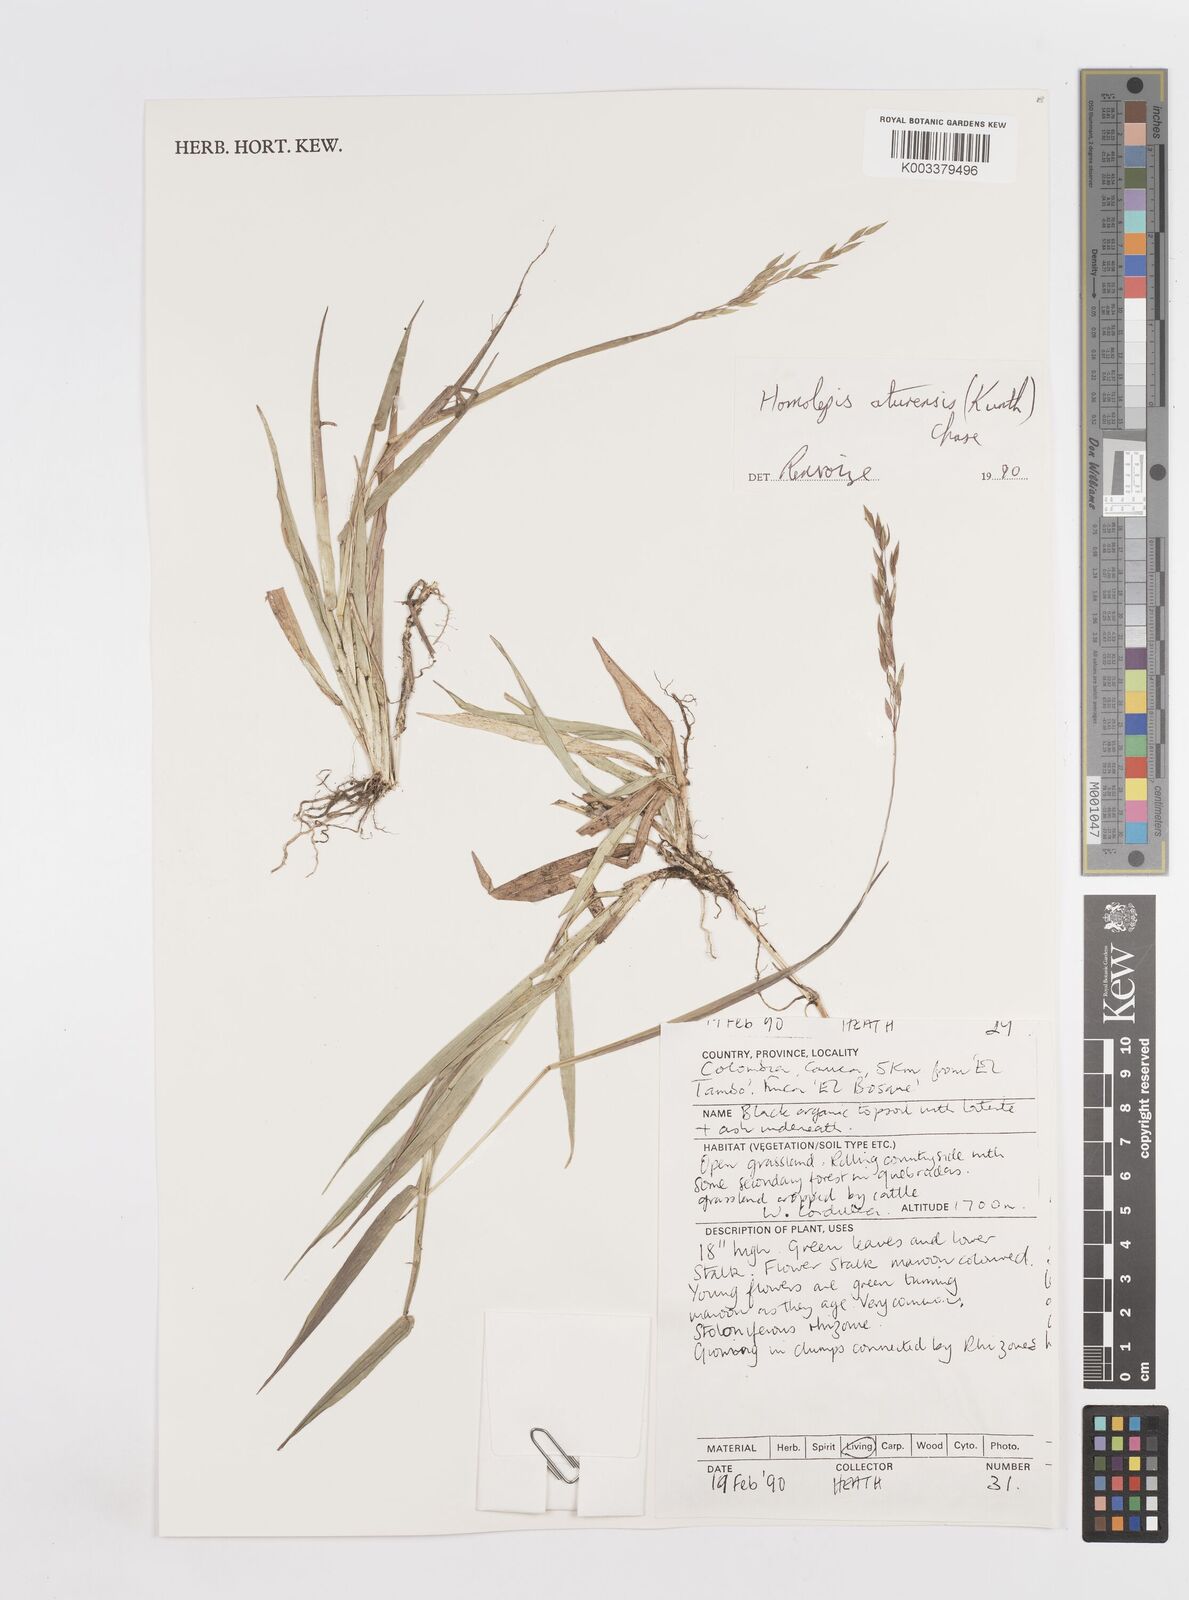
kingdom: Plantae
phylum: Tracheophyta
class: Liliopsida
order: Poales
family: Poaceae
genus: Homolepis
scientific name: Homolepis aturensis
